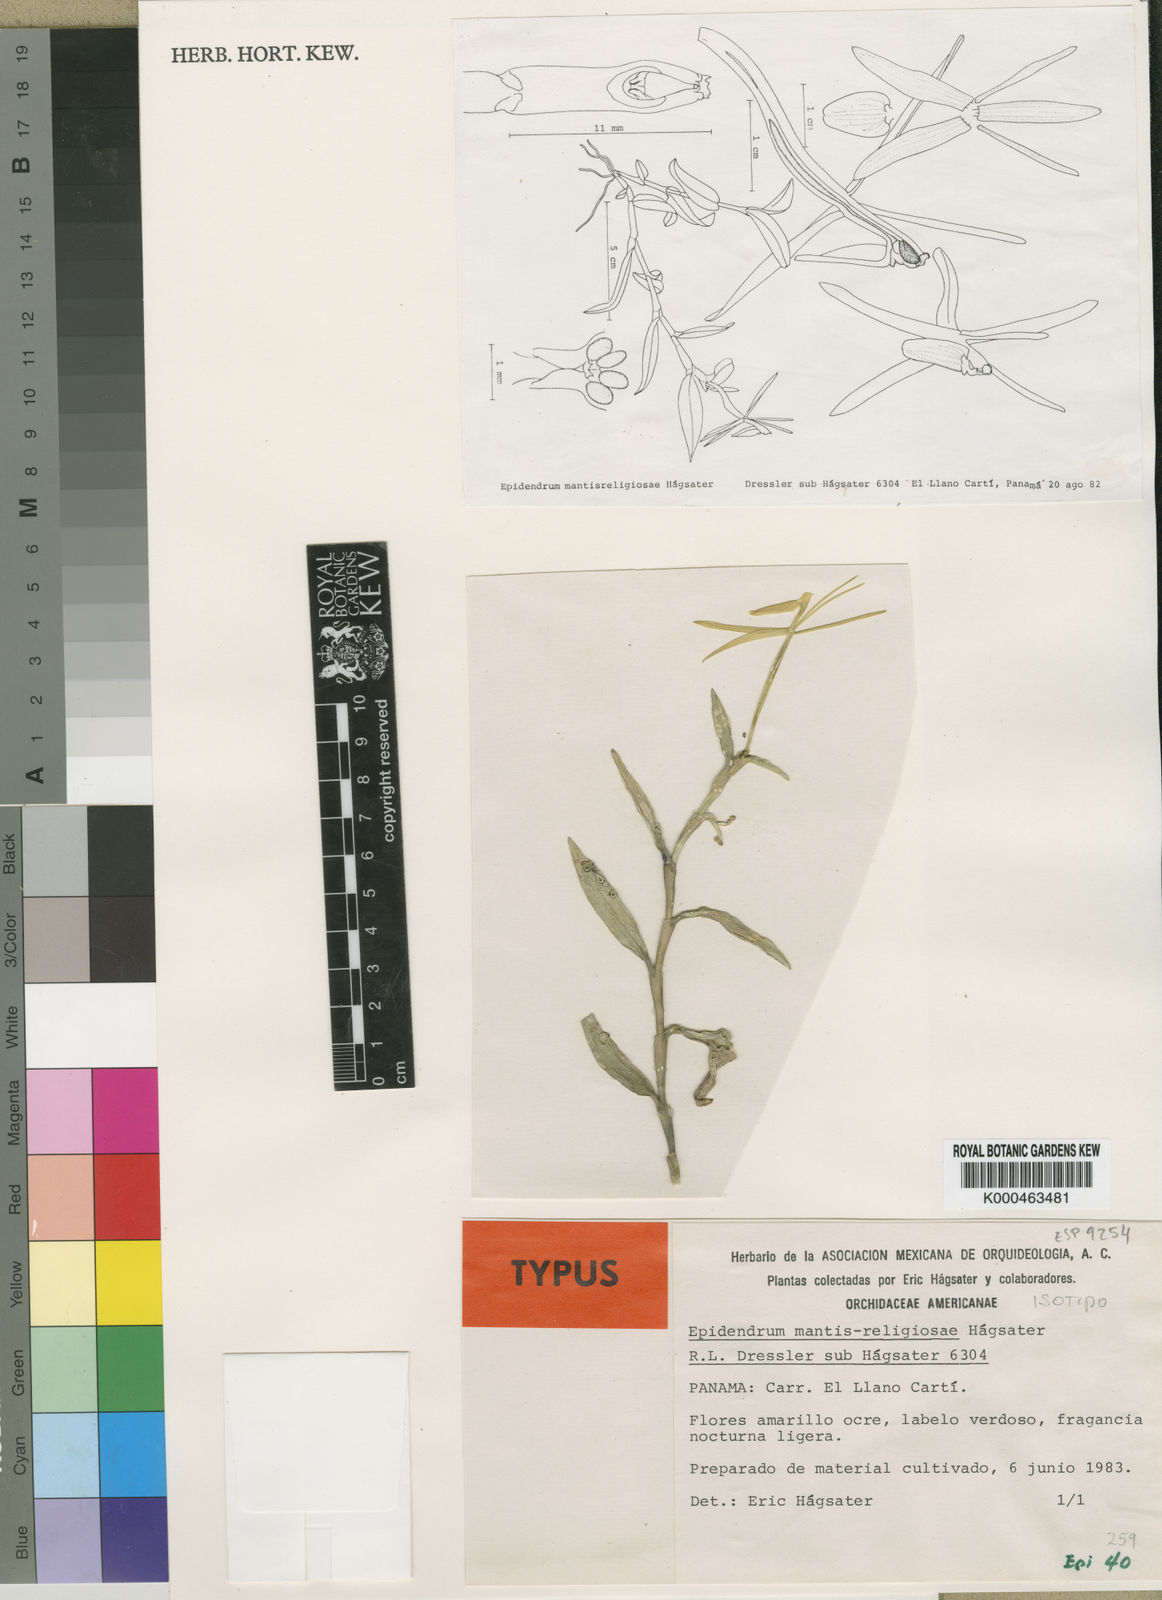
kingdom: Plantae
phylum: Tracheophyta
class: Liliopsida
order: Asparagales
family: Orchidaceae
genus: Epidendrum
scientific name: Epidendrum
